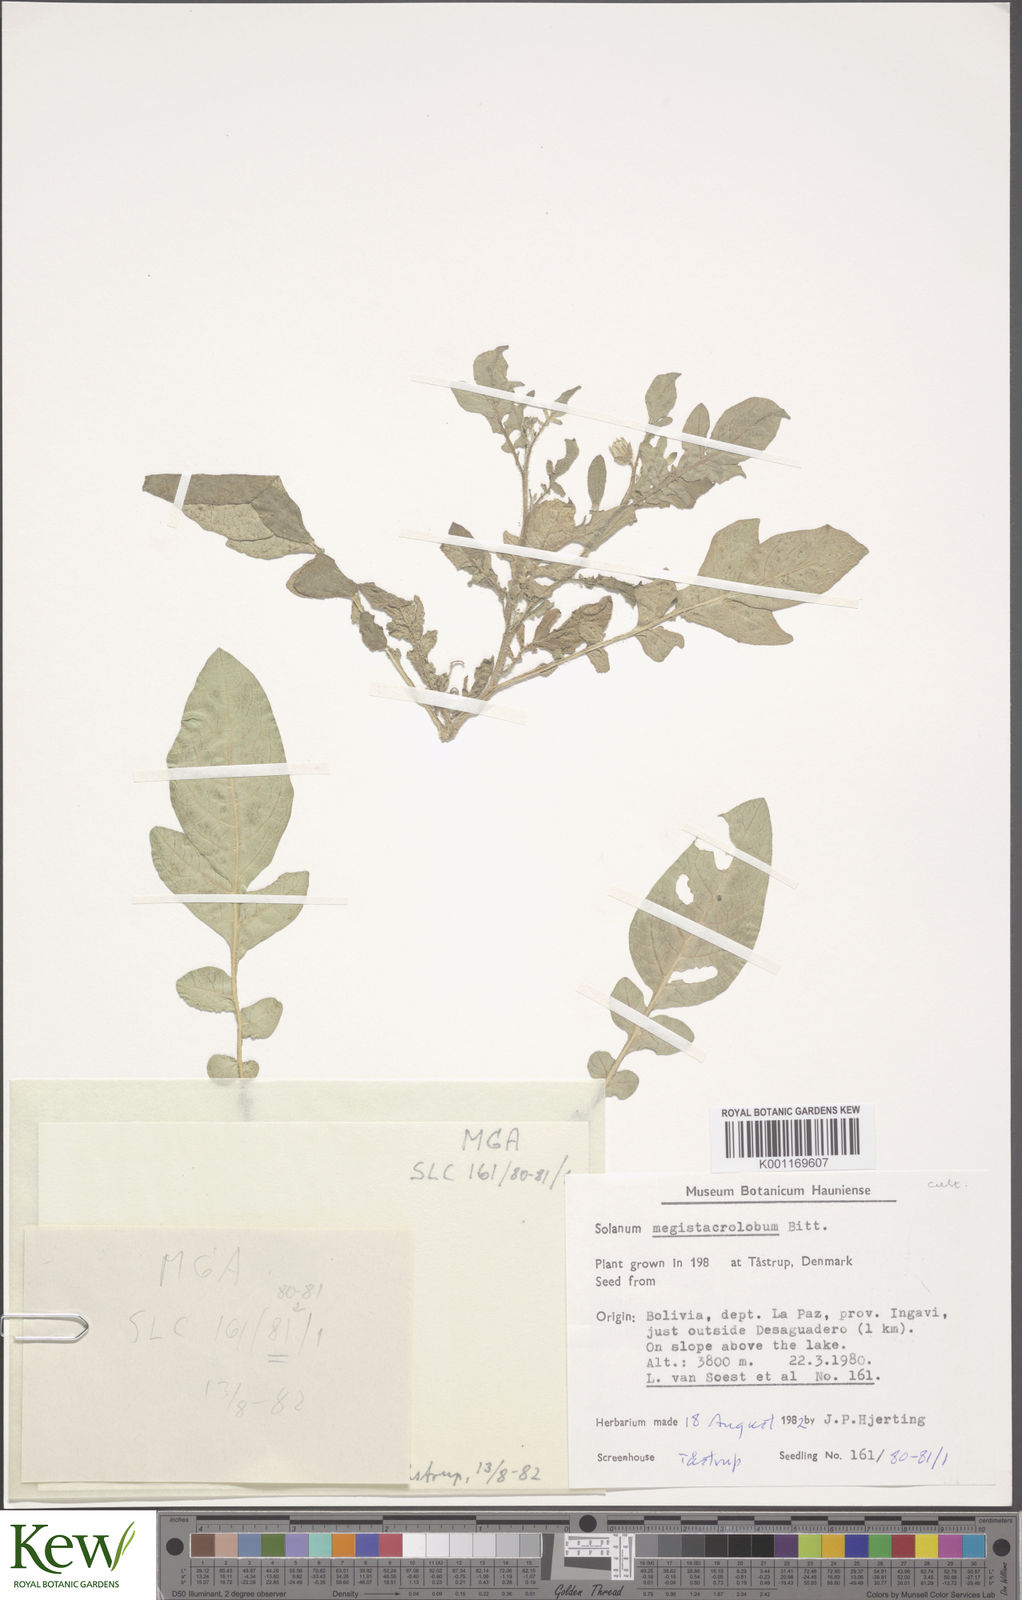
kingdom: Plantae
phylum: Tracheophyta
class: Magnoliopsida
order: Solanales
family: Solanaceae
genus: Solanum
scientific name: Solanum boliviense
